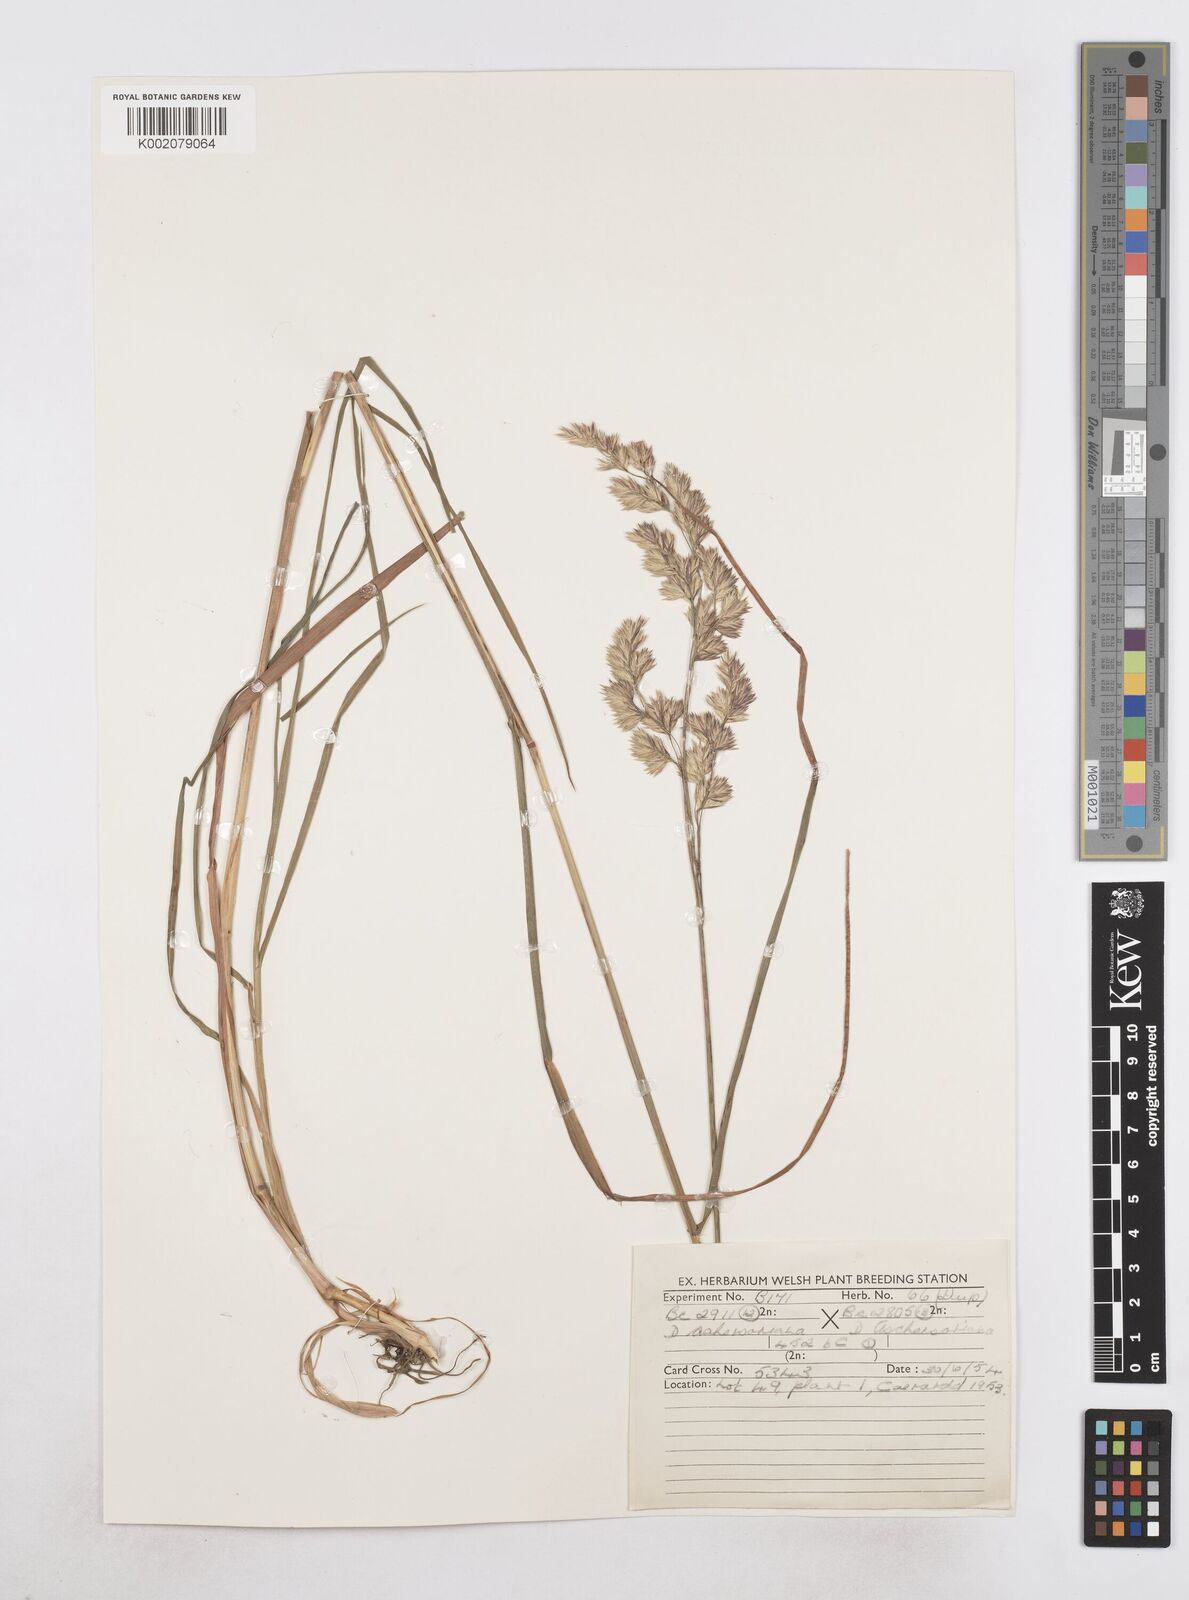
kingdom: Plantae
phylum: Tracheophyta
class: Liliopsida
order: Poales
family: Poaceae
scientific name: Poaceae
